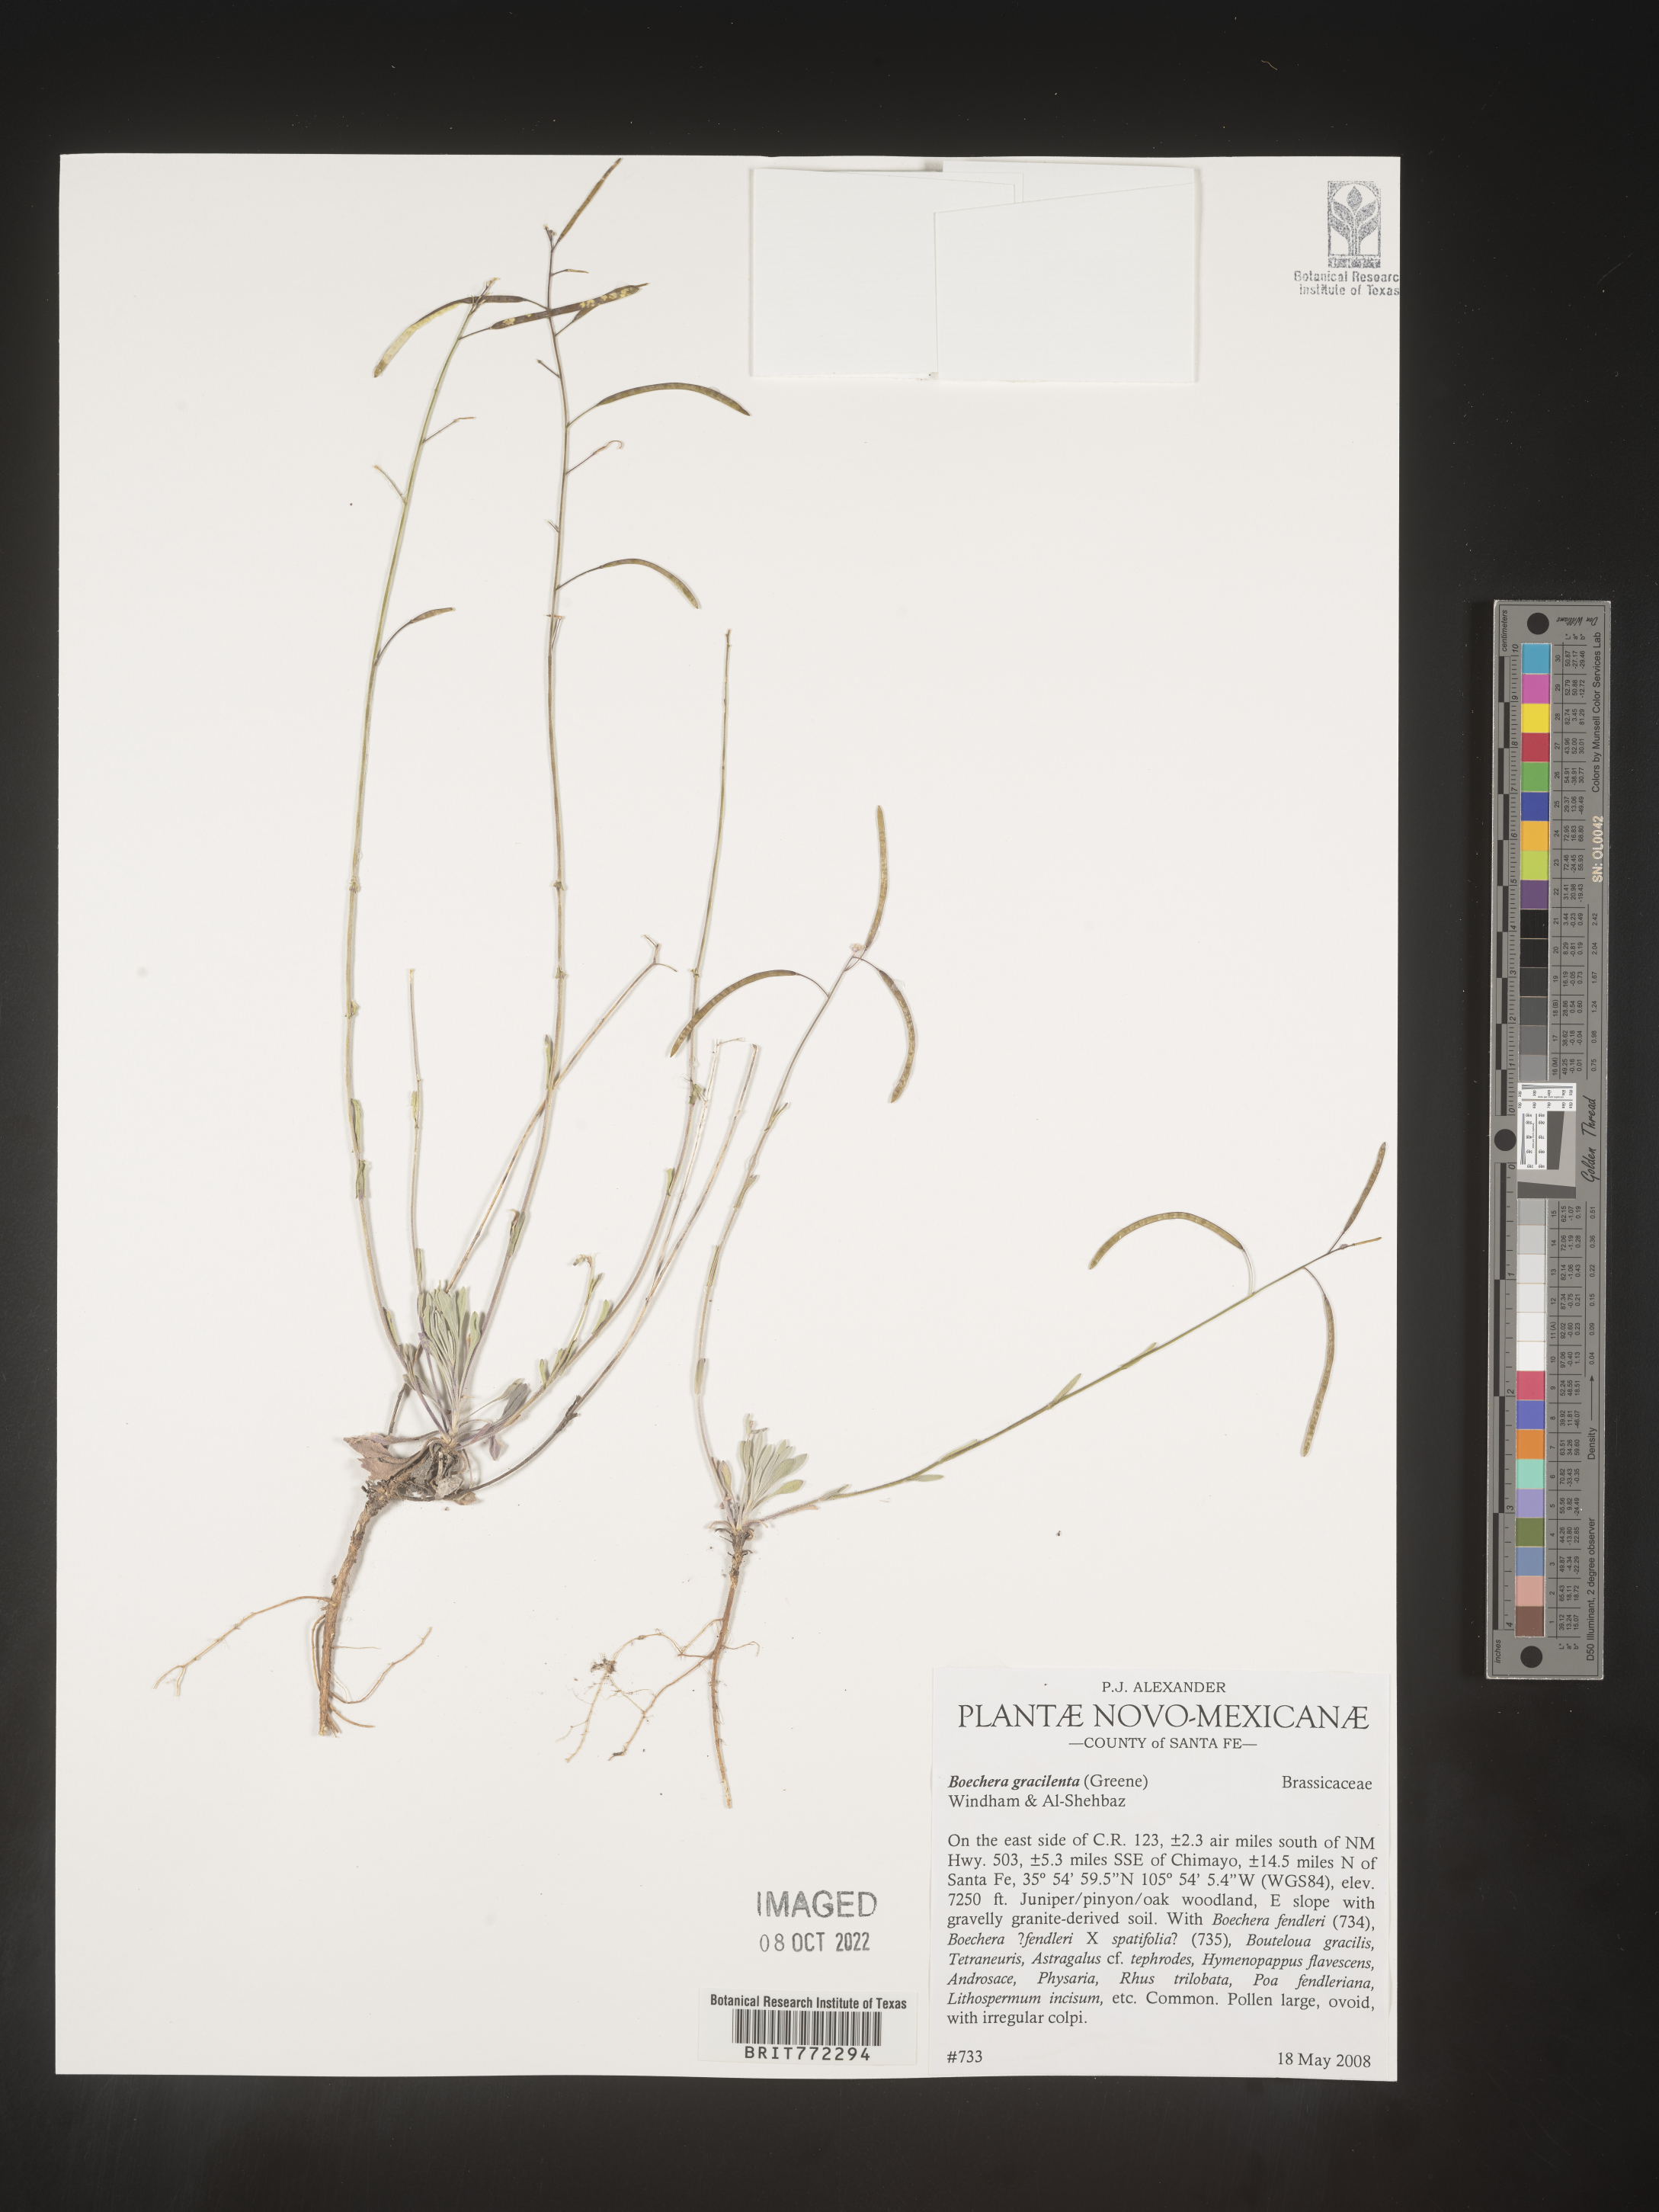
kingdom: Plantae
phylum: Tracheophyta
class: Magnoliopsida
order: Brassicales
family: Brassicaceae
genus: Boechera
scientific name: Boechera
